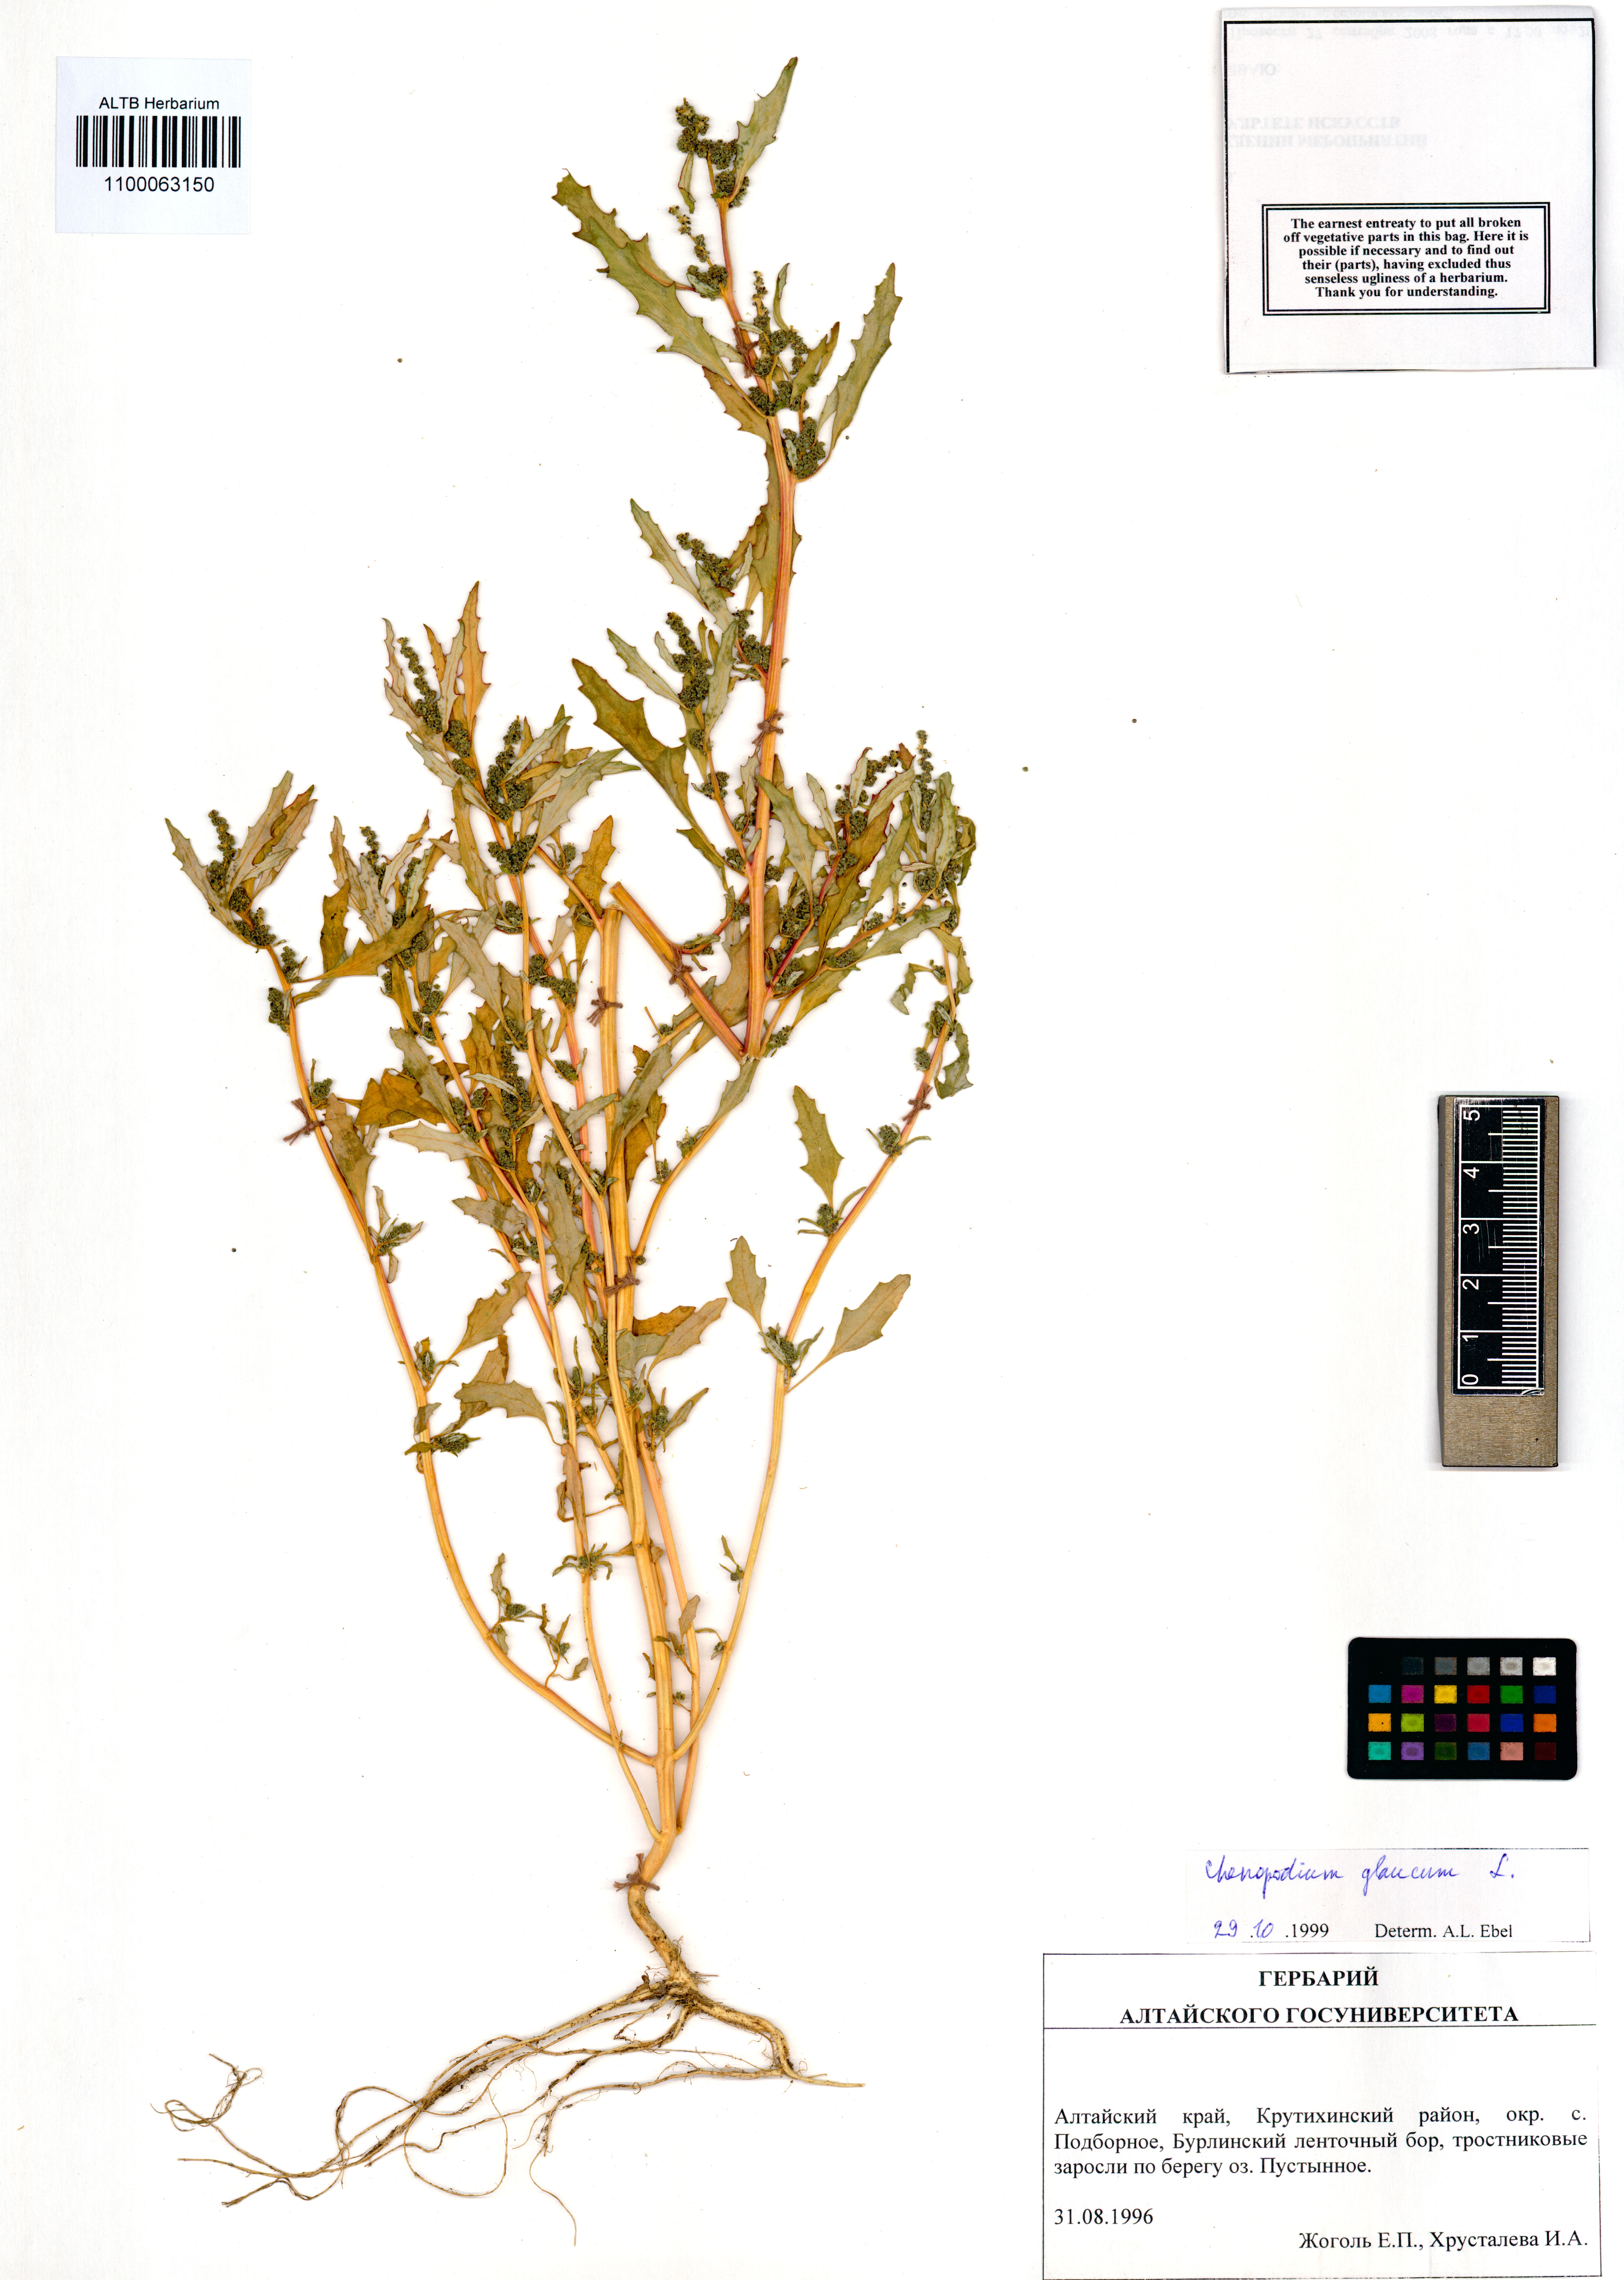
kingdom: Plantae
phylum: Tracheophyta
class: Magnoliopsida
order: Caryophyllales
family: Amaranthaceae
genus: Oxybasis
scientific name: Oxybasis glauca
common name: Glaucous goosefoot
